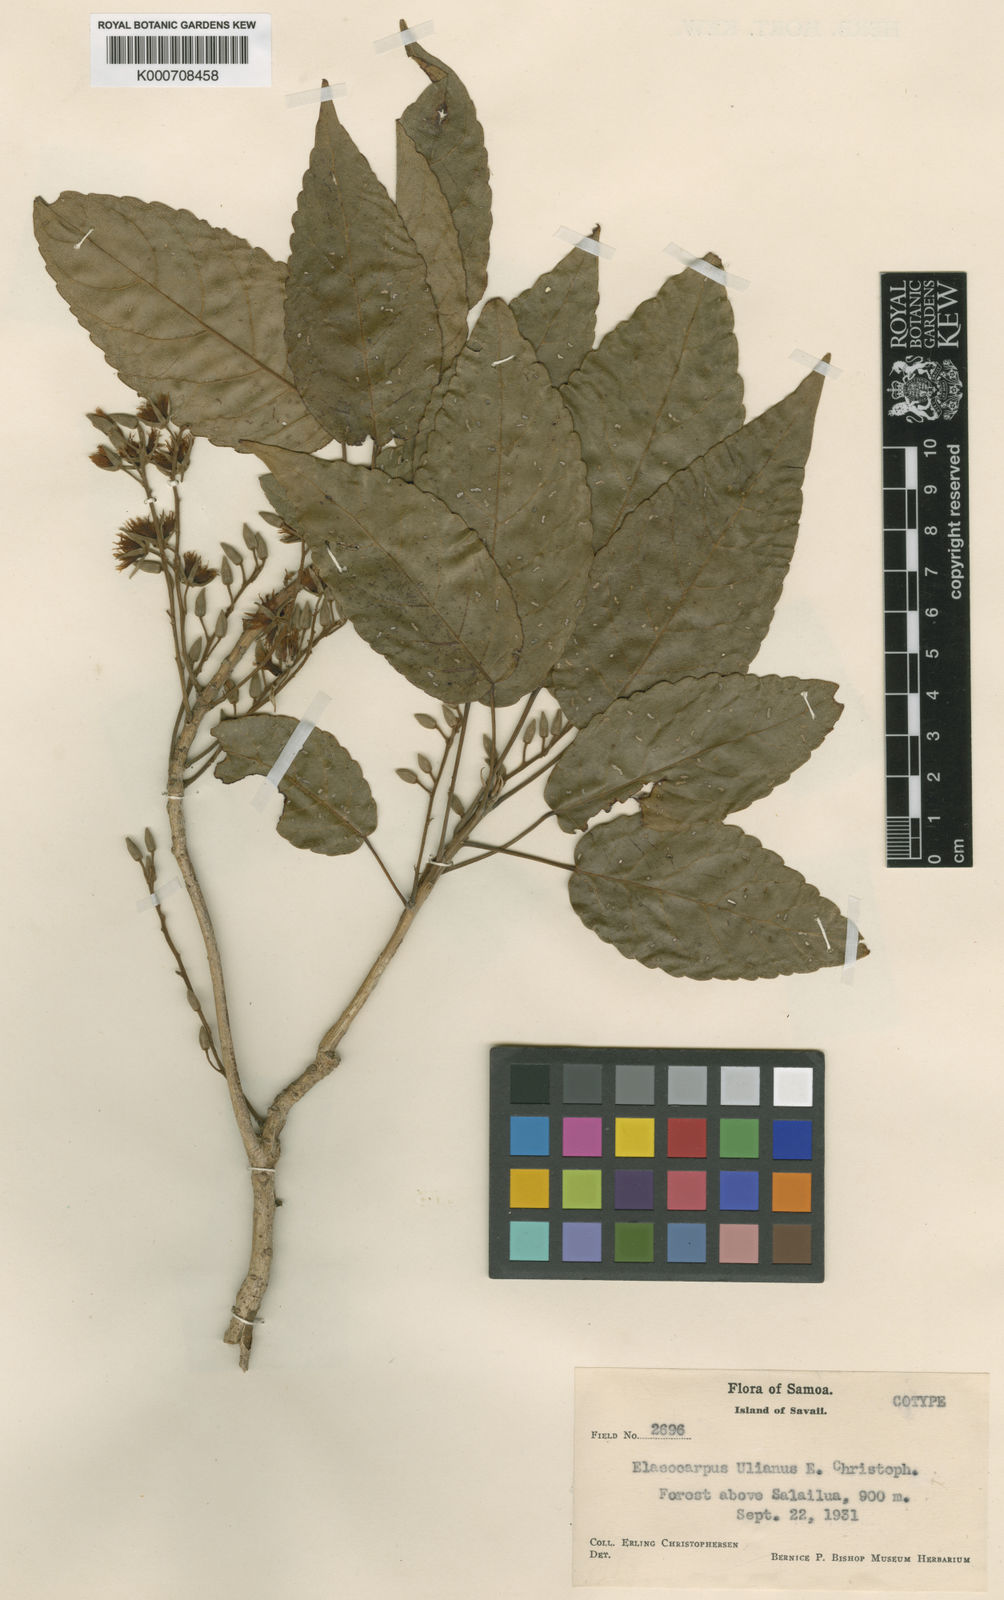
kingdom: Plantae
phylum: Tracheophyta
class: Magnoliopsida
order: Oxalidales
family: Elaeocarpaceae
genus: Elaeocarpus
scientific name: Elaeocarpus ulianus
